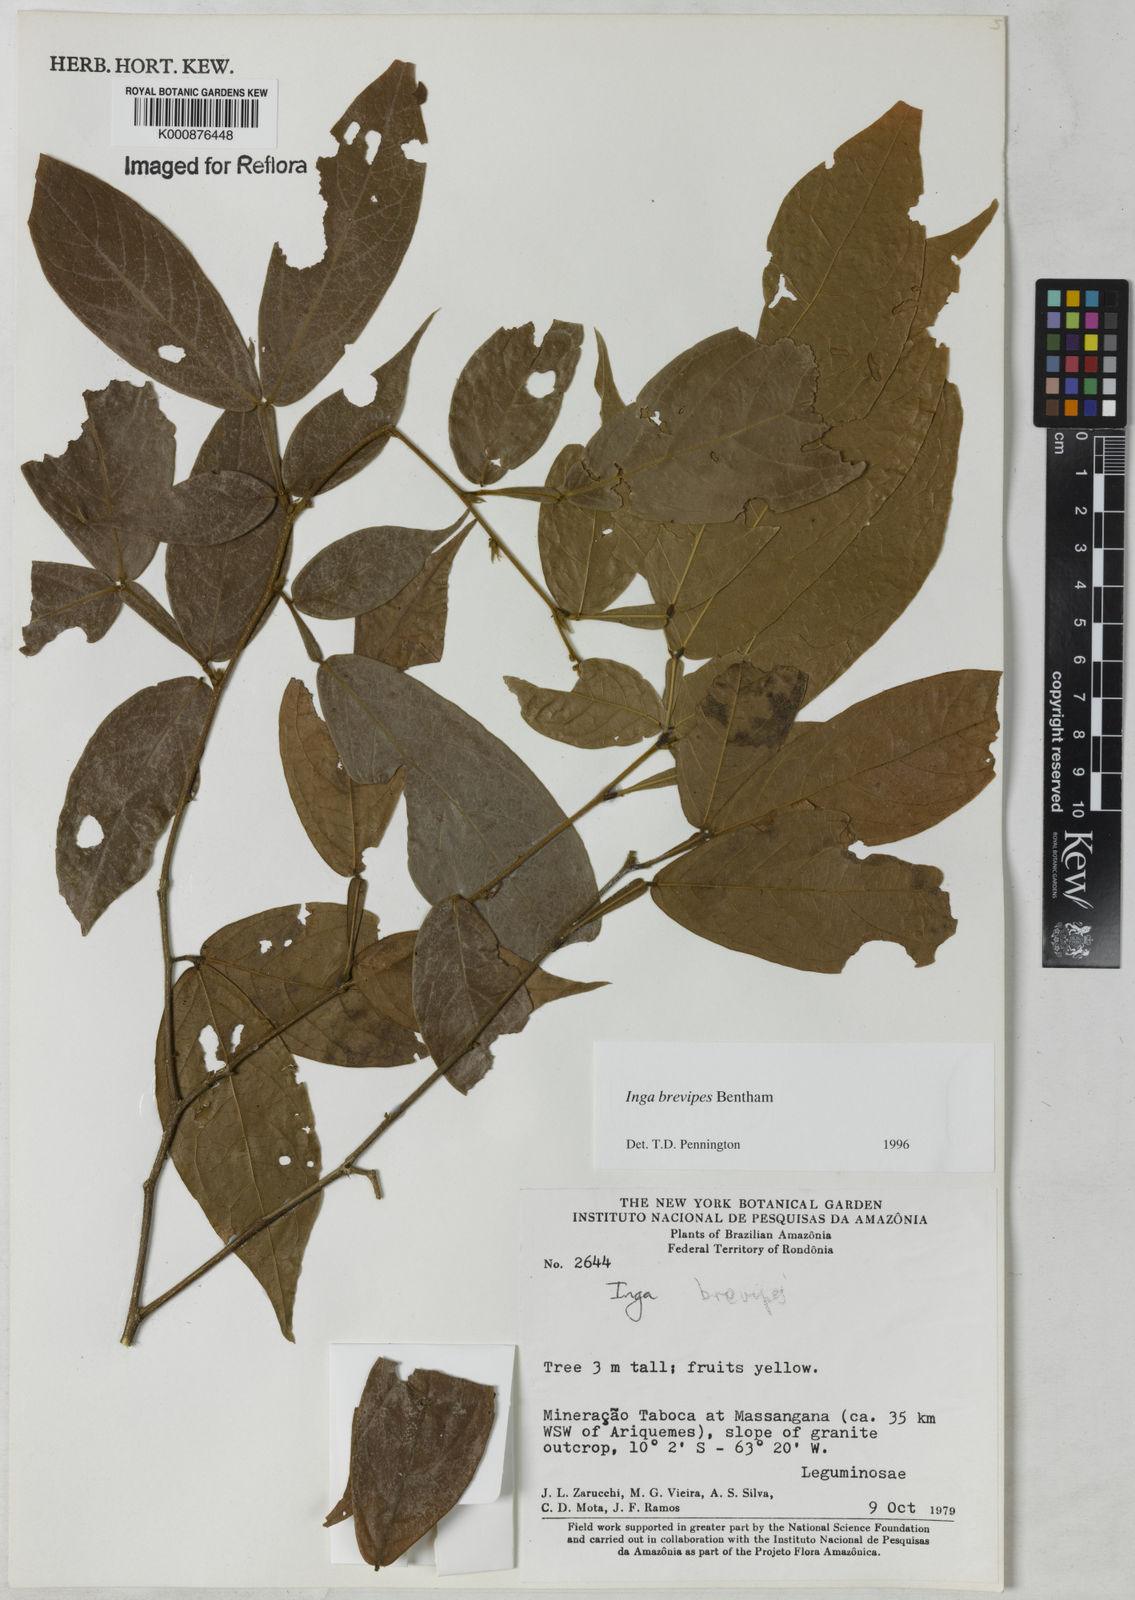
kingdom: Plantae
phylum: Tracheophyta
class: Magnoliopsida
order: Fabales
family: Fabaceae
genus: Inga
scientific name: Inga brevipes
